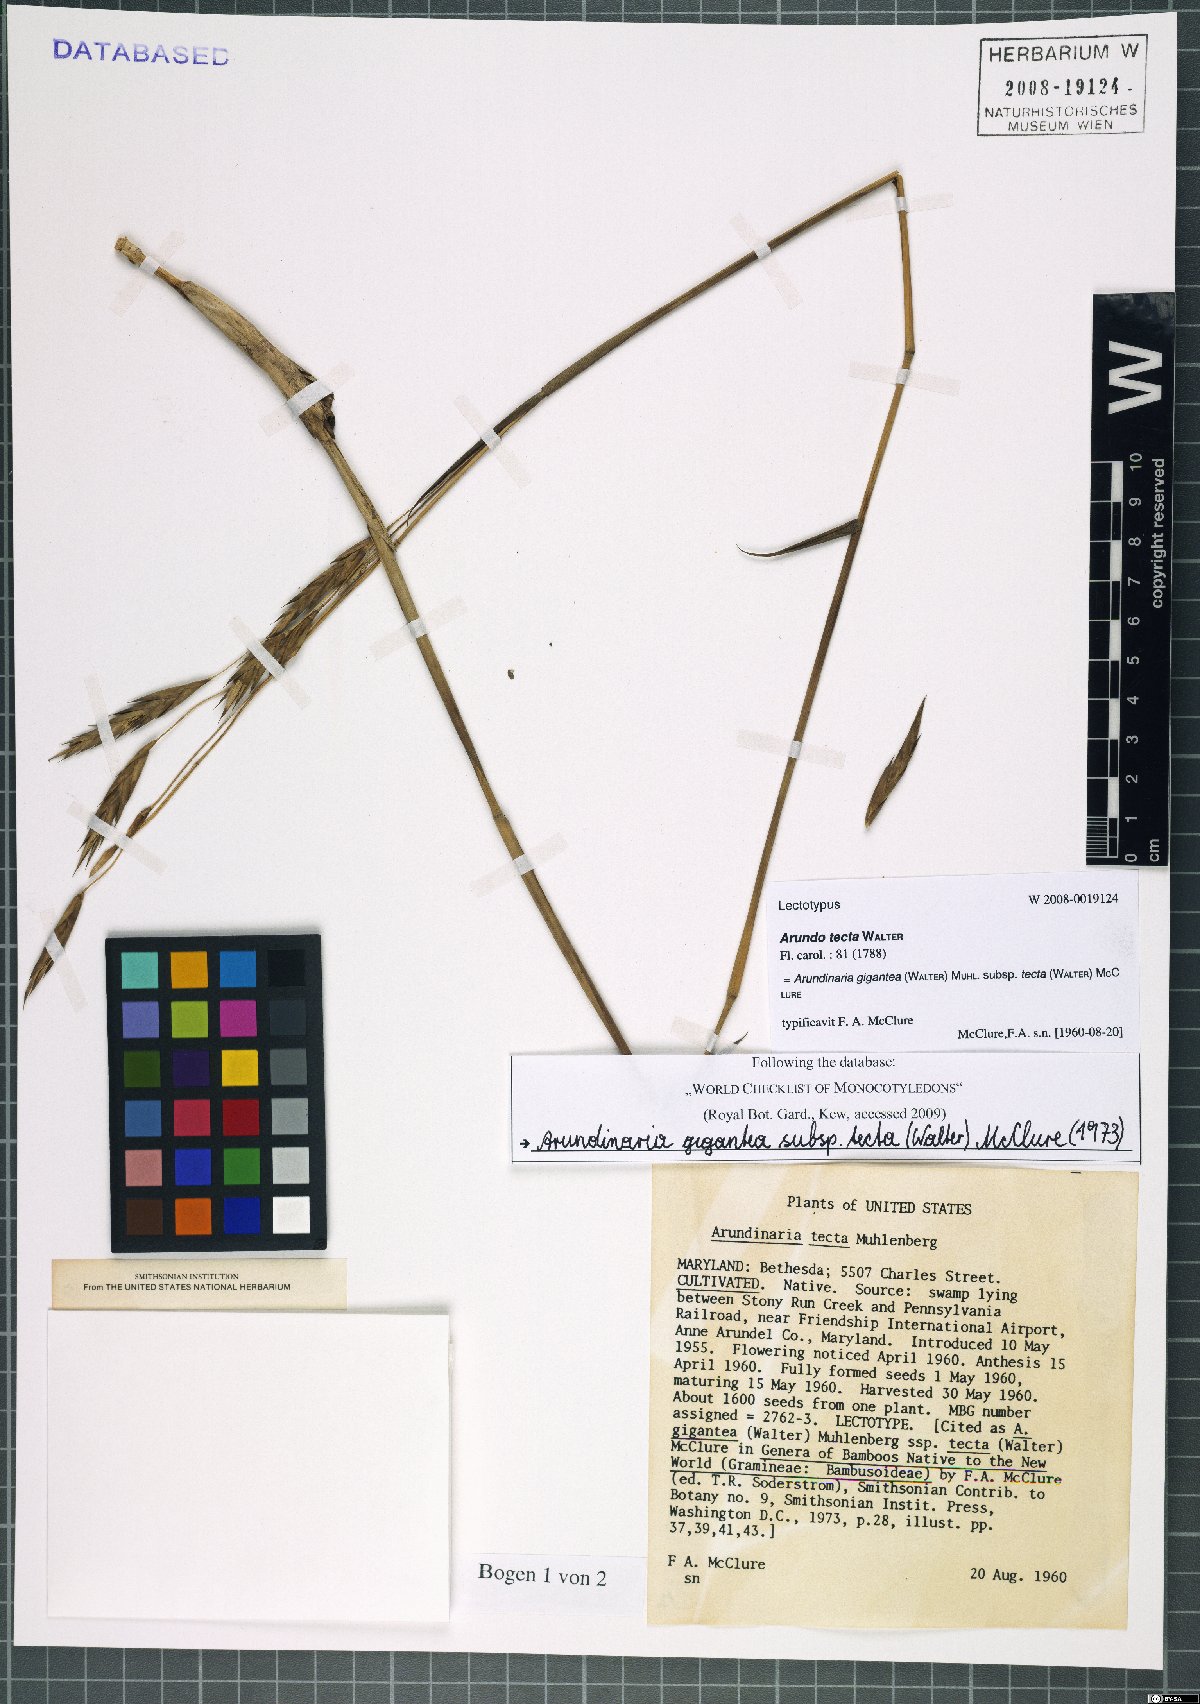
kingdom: Plantae
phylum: Tracheophyta
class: Liliopsida
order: Poales
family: Poaceae
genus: Arundinaria
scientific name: Arundinaria tecta
